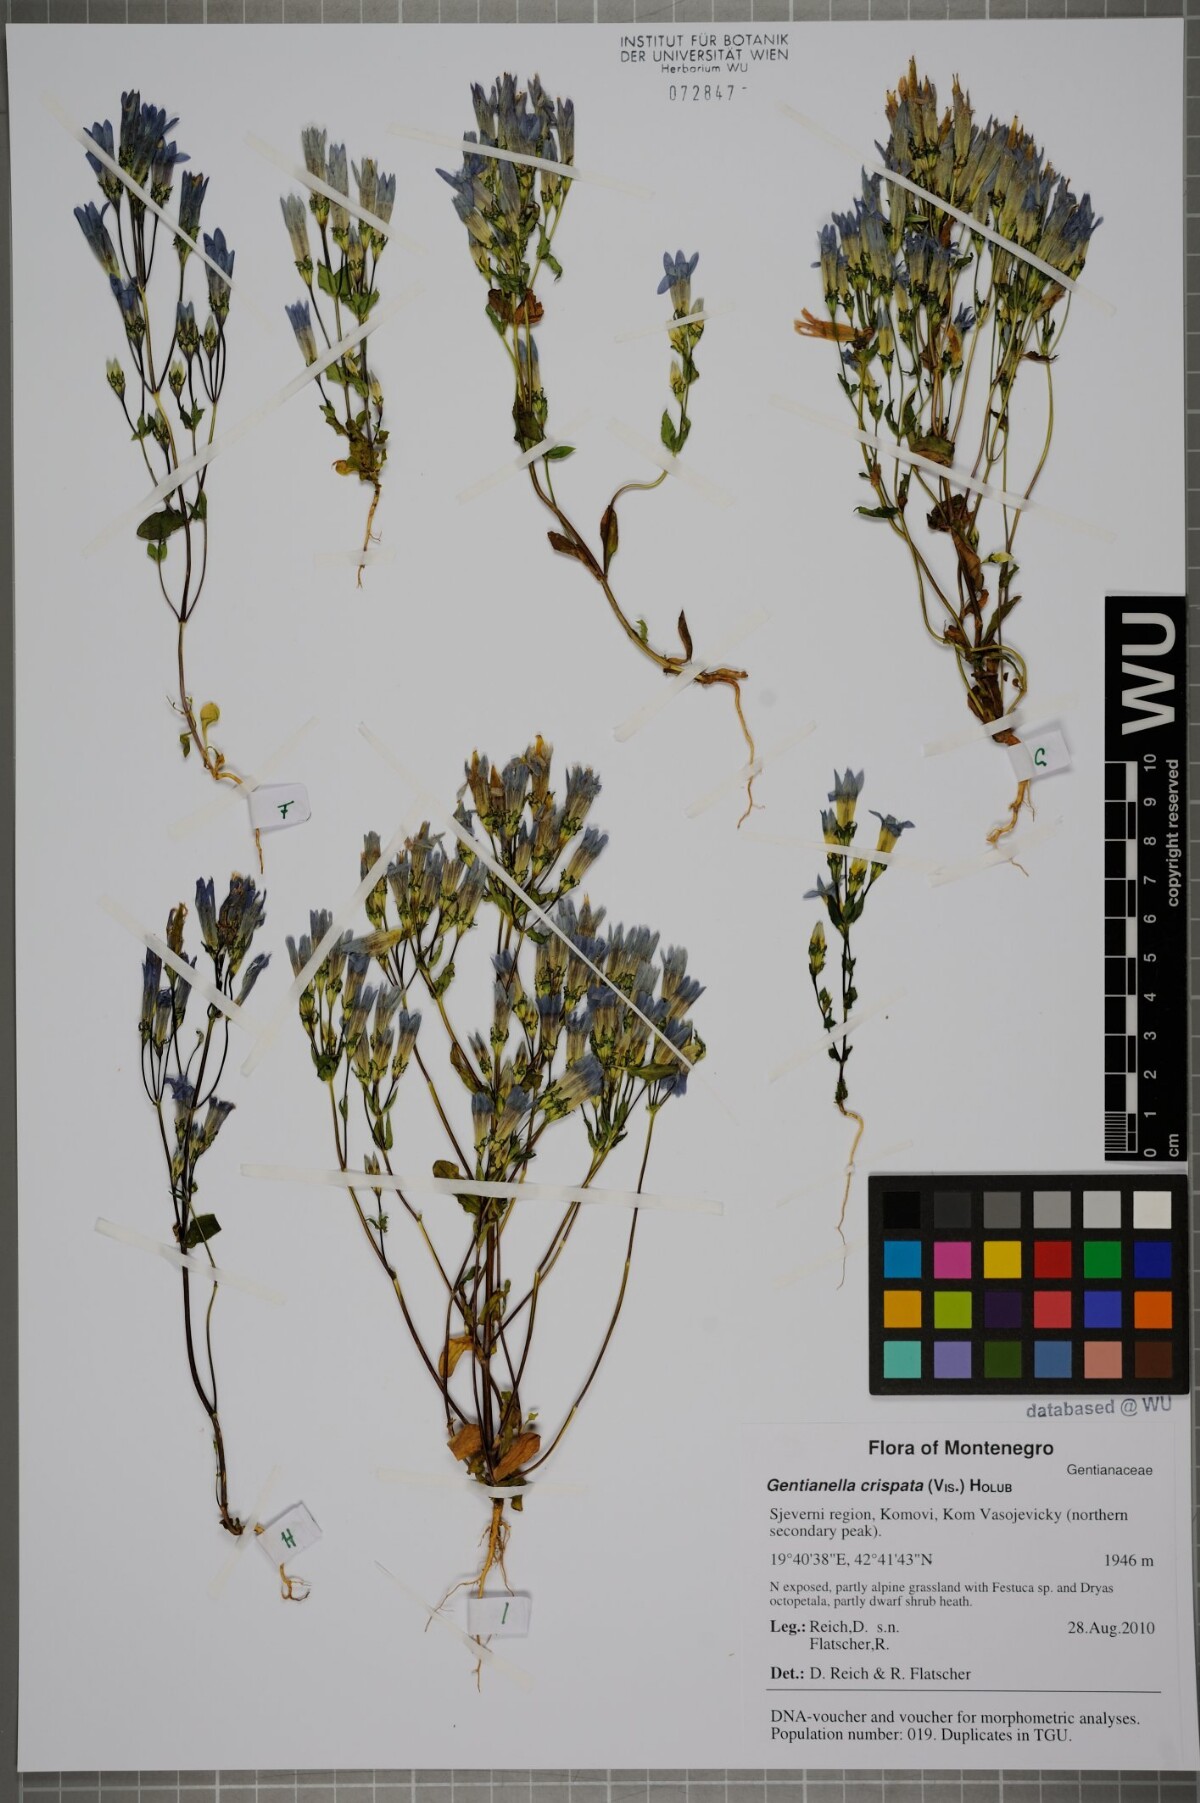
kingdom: Plantae
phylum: Tracheophyta
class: Magnoliopsida
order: Gentianales
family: Gentianaceae
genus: Gentianella
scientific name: Gentianella crispata
